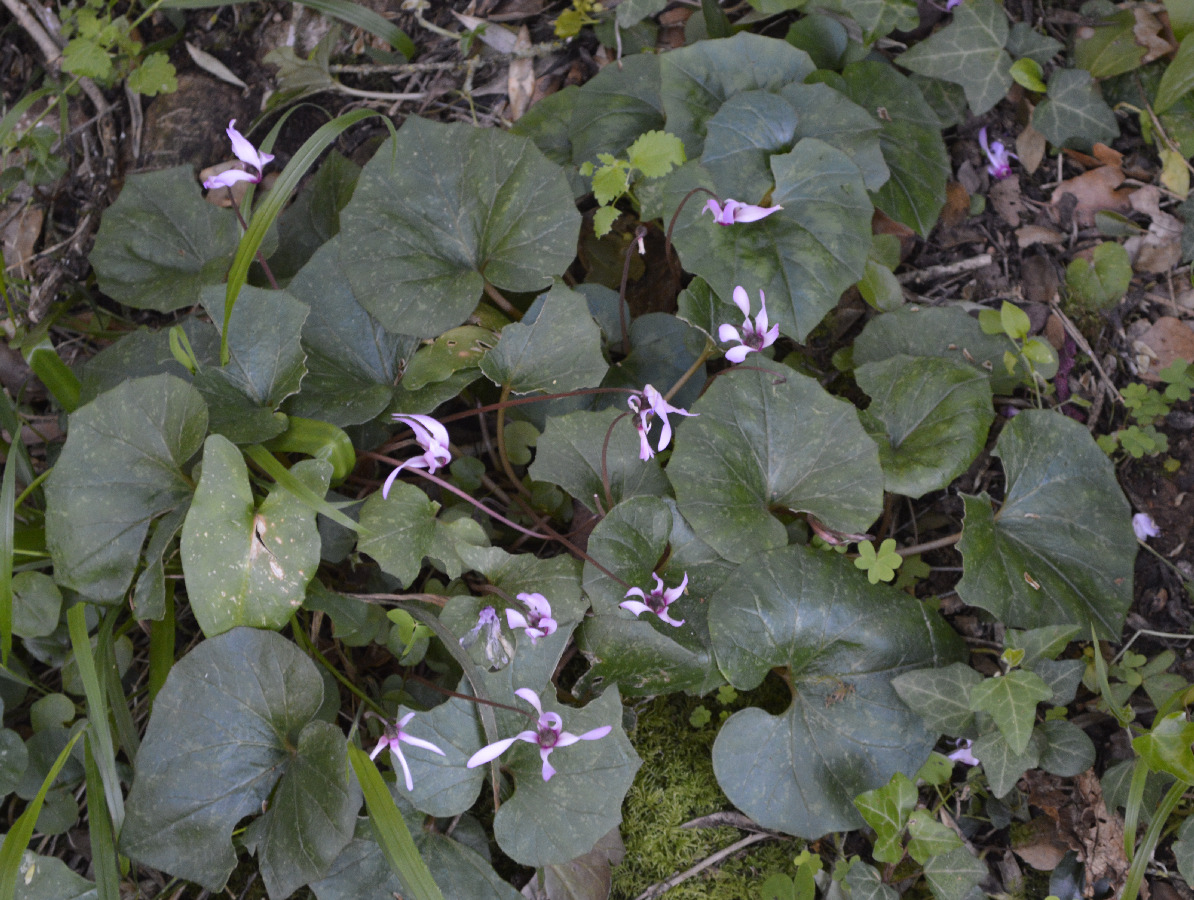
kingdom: Plantae
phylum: Tracheophyta
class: Magnoliopsida
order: Ericales
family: Primulaceae
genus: Cyclamen
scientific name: Cyclamen repandum
